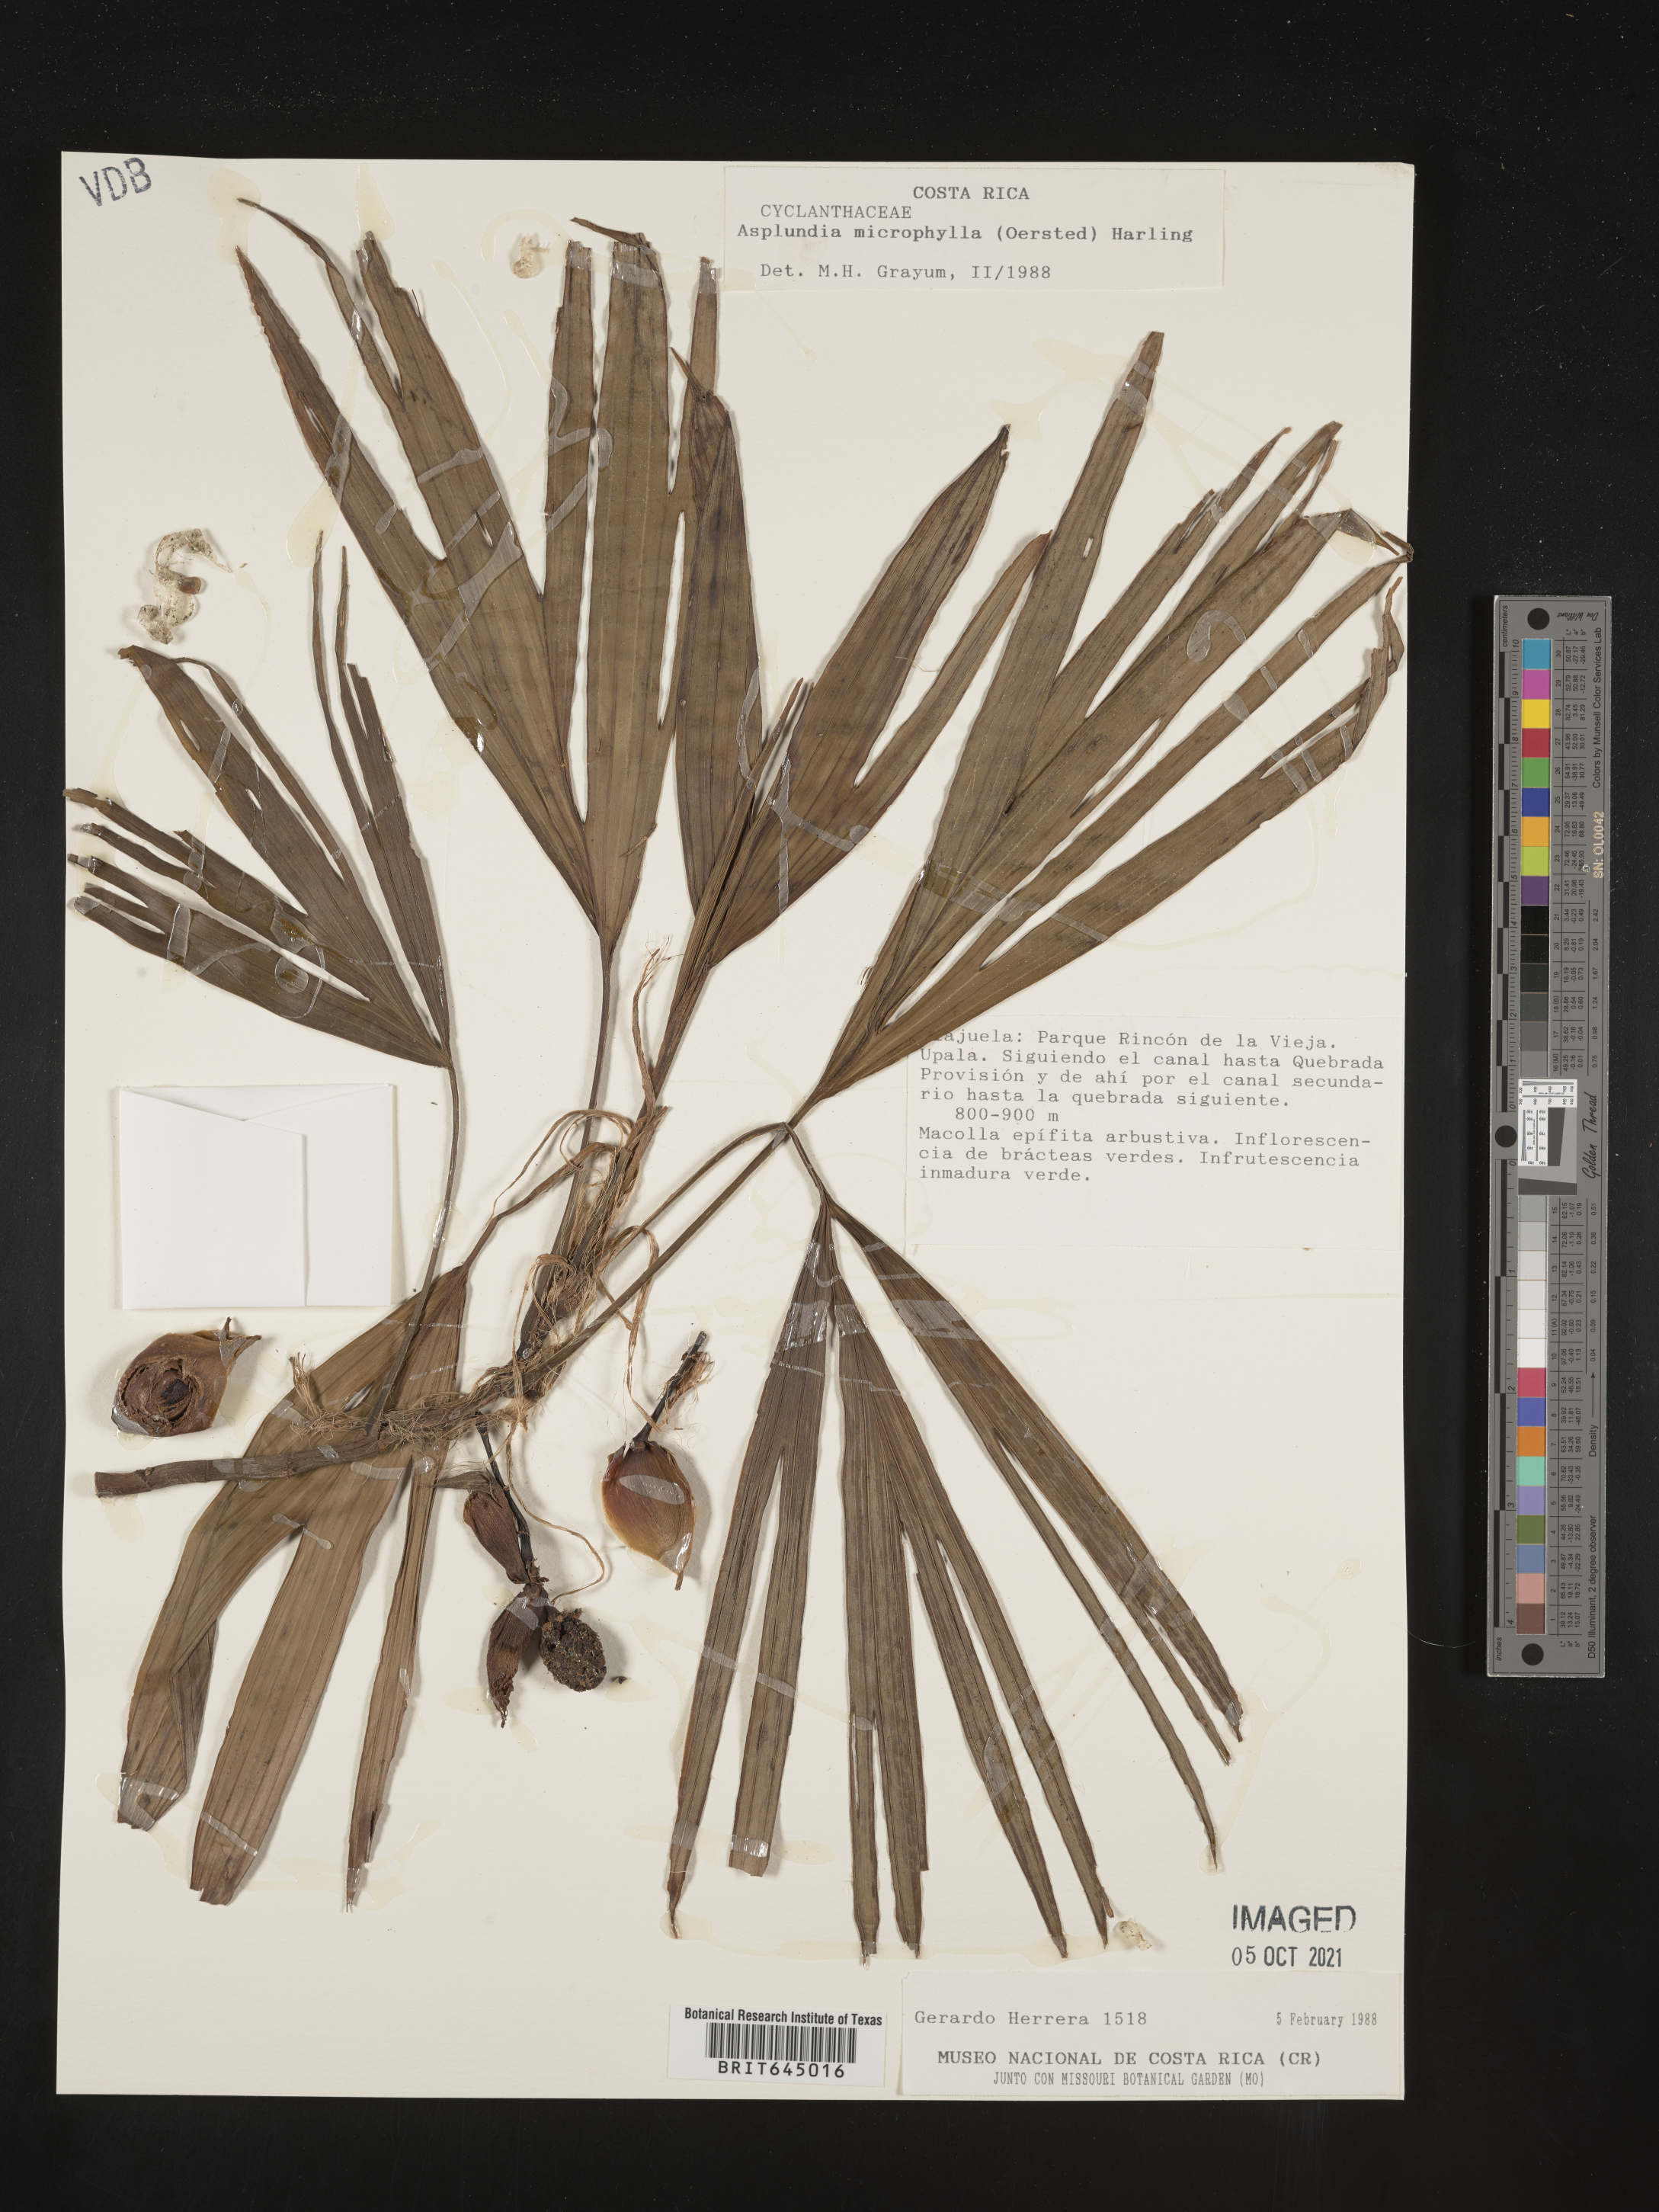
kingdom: Plantae
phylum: Tracheophyta
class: Liliopsida
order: Pandanales
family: Cyclanthaceae
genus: Asplundia
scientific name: Asplundia microphylla
